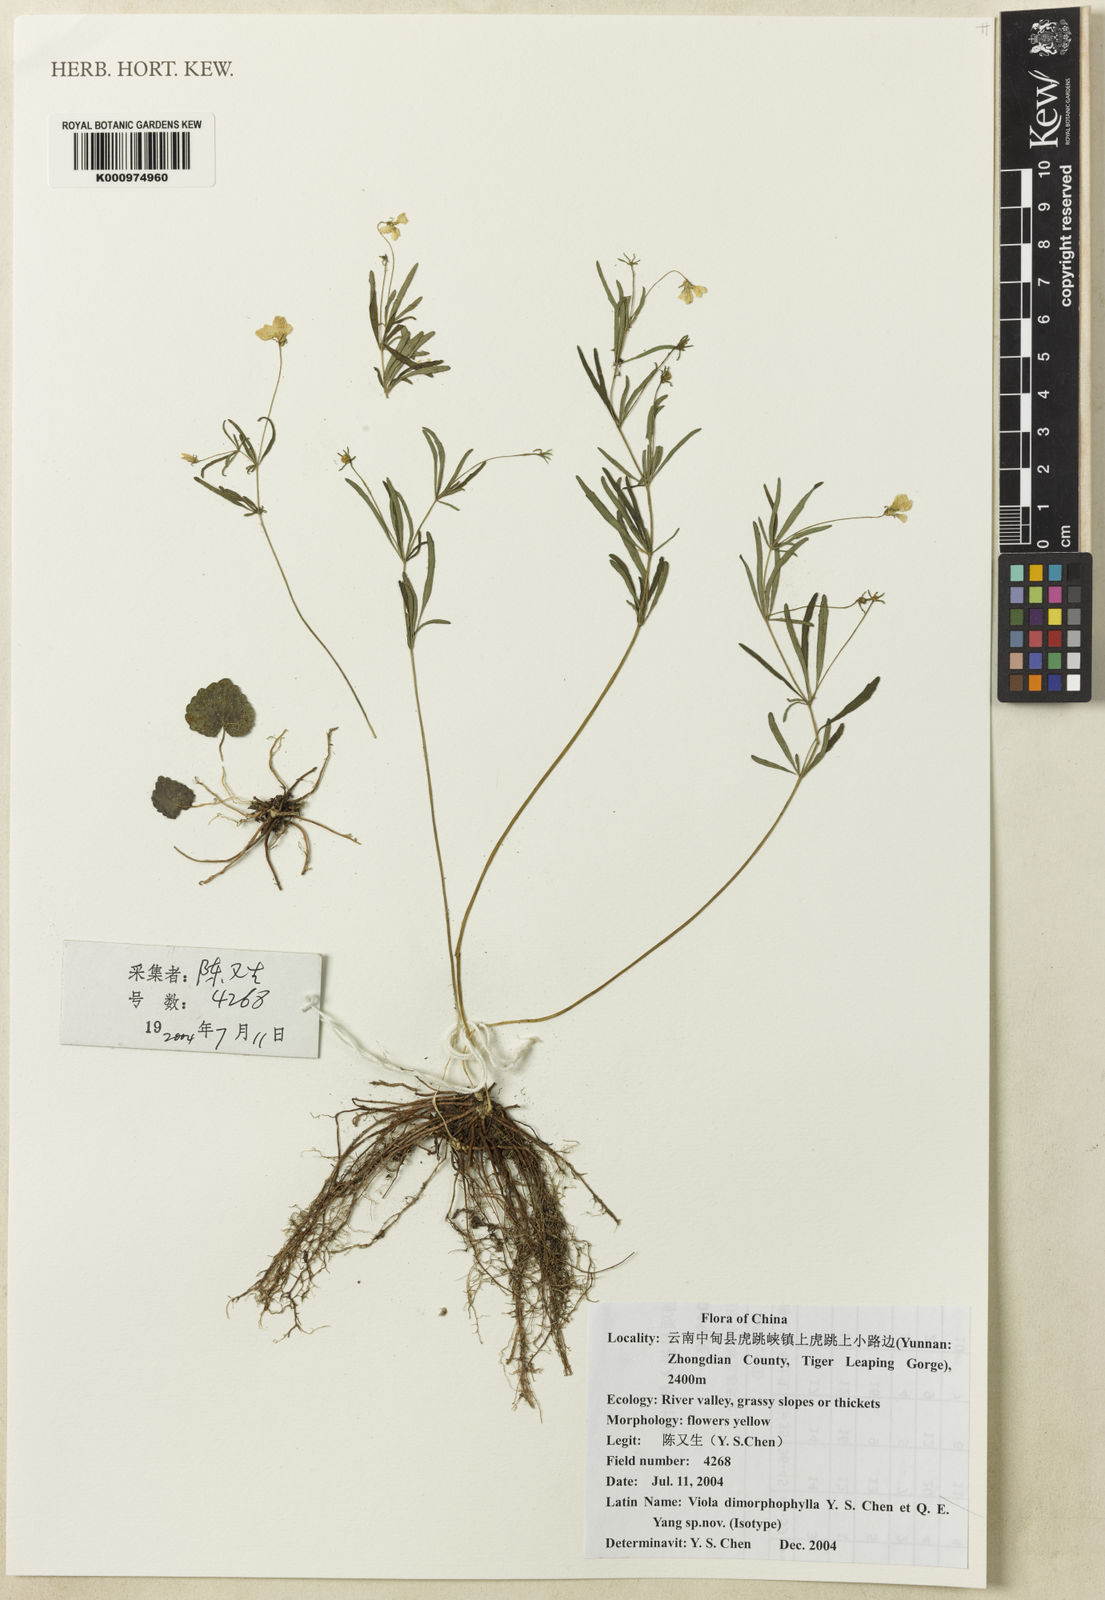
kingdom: Plantae
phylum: Tracheophyta
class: Magnoliopsida
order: Malpighiales
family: Violaceae
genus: Viola
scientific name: Viola dimorphophylla
